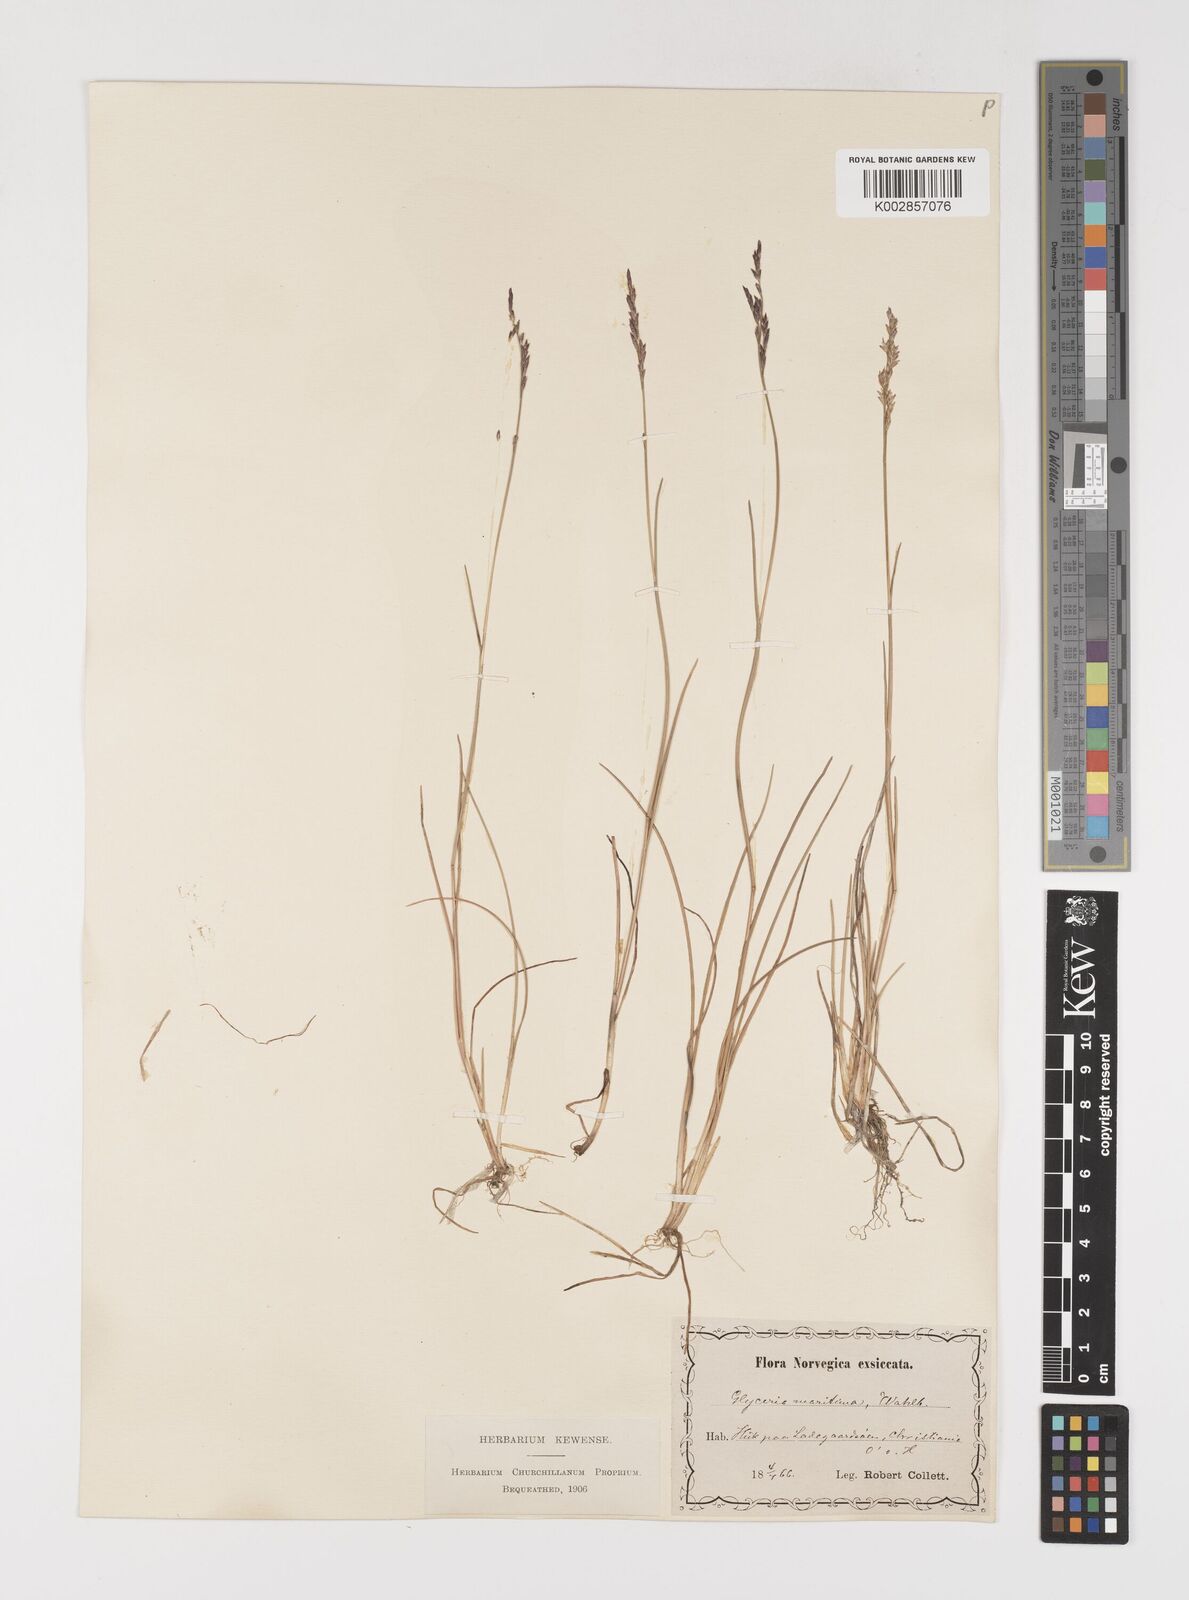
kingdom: Plantae
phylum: Tracheophyta
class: Liliopsida
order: Poales
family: Poaceae
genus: Puccinellia
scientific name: Puccinellia maritima
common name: Common saltmarsh grass
